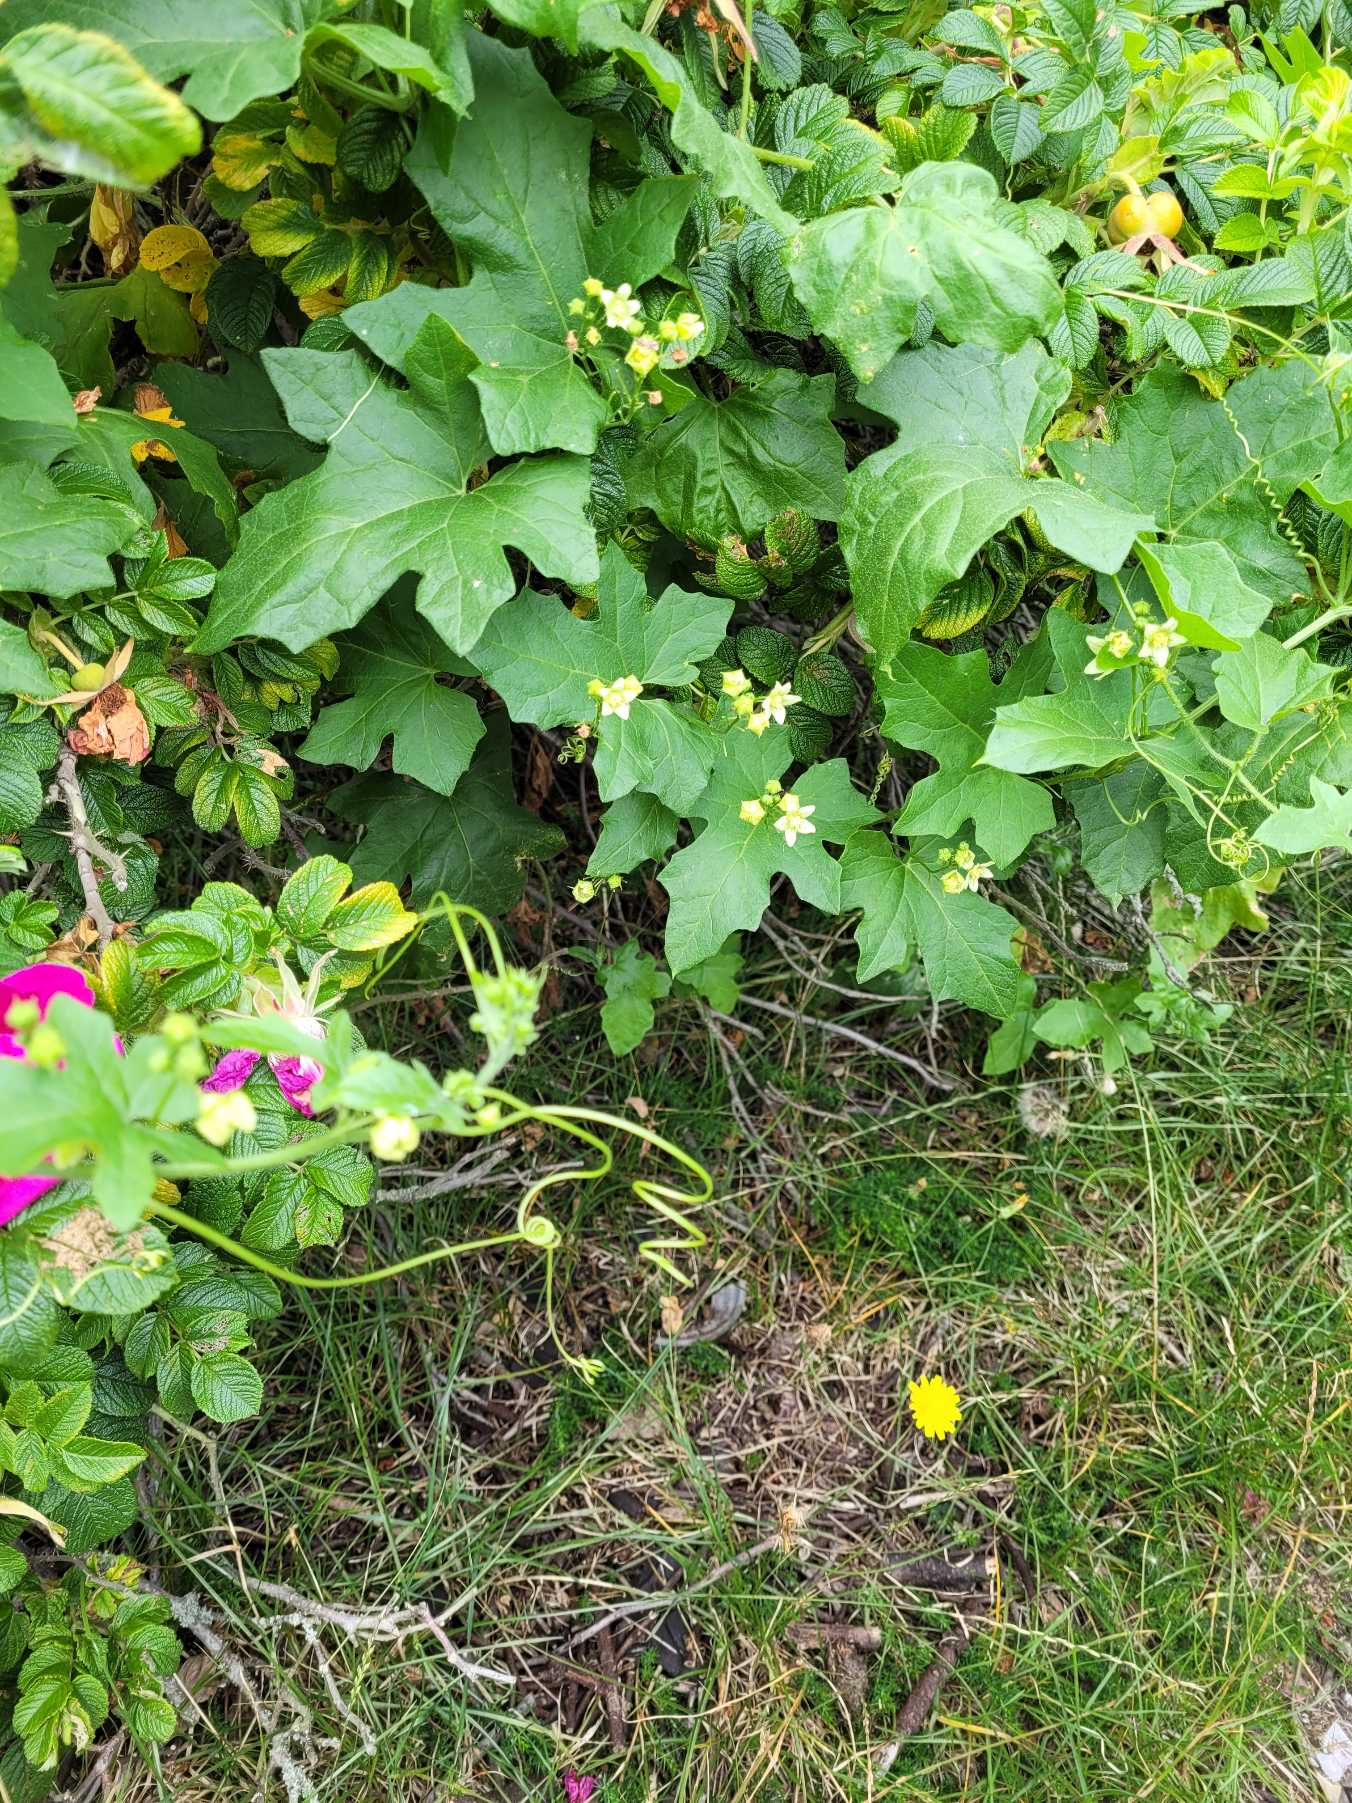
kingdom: Plantae
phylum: Tracheophyta
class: Magnoliopsida
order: Cucurbitales
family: Cucurbitaceae
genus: Bryonia
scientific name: Bryonia dioica
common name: Tvebo galdebær
